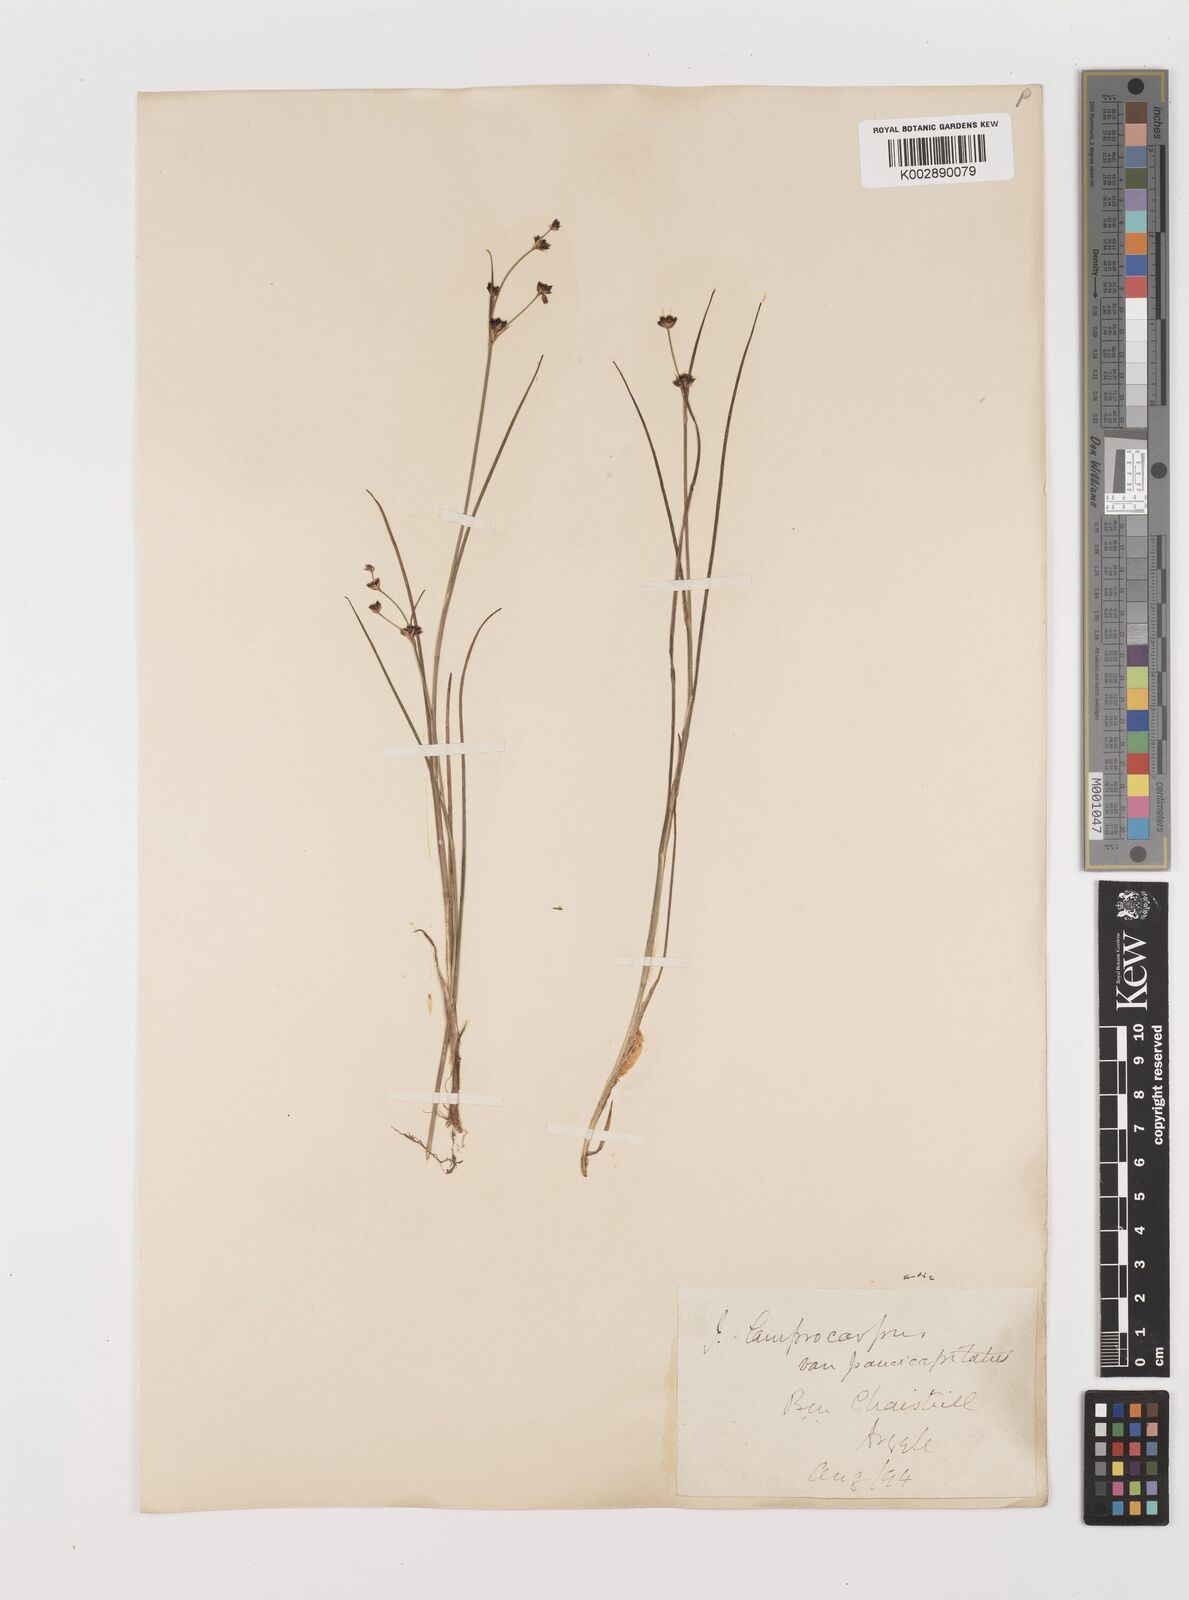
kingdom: Plantae
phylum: Tracheophyta
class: Liliopsida
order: Poales
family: Juncaceae
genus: Juncus
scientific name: Juncus articulatus
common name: Jointed rush
